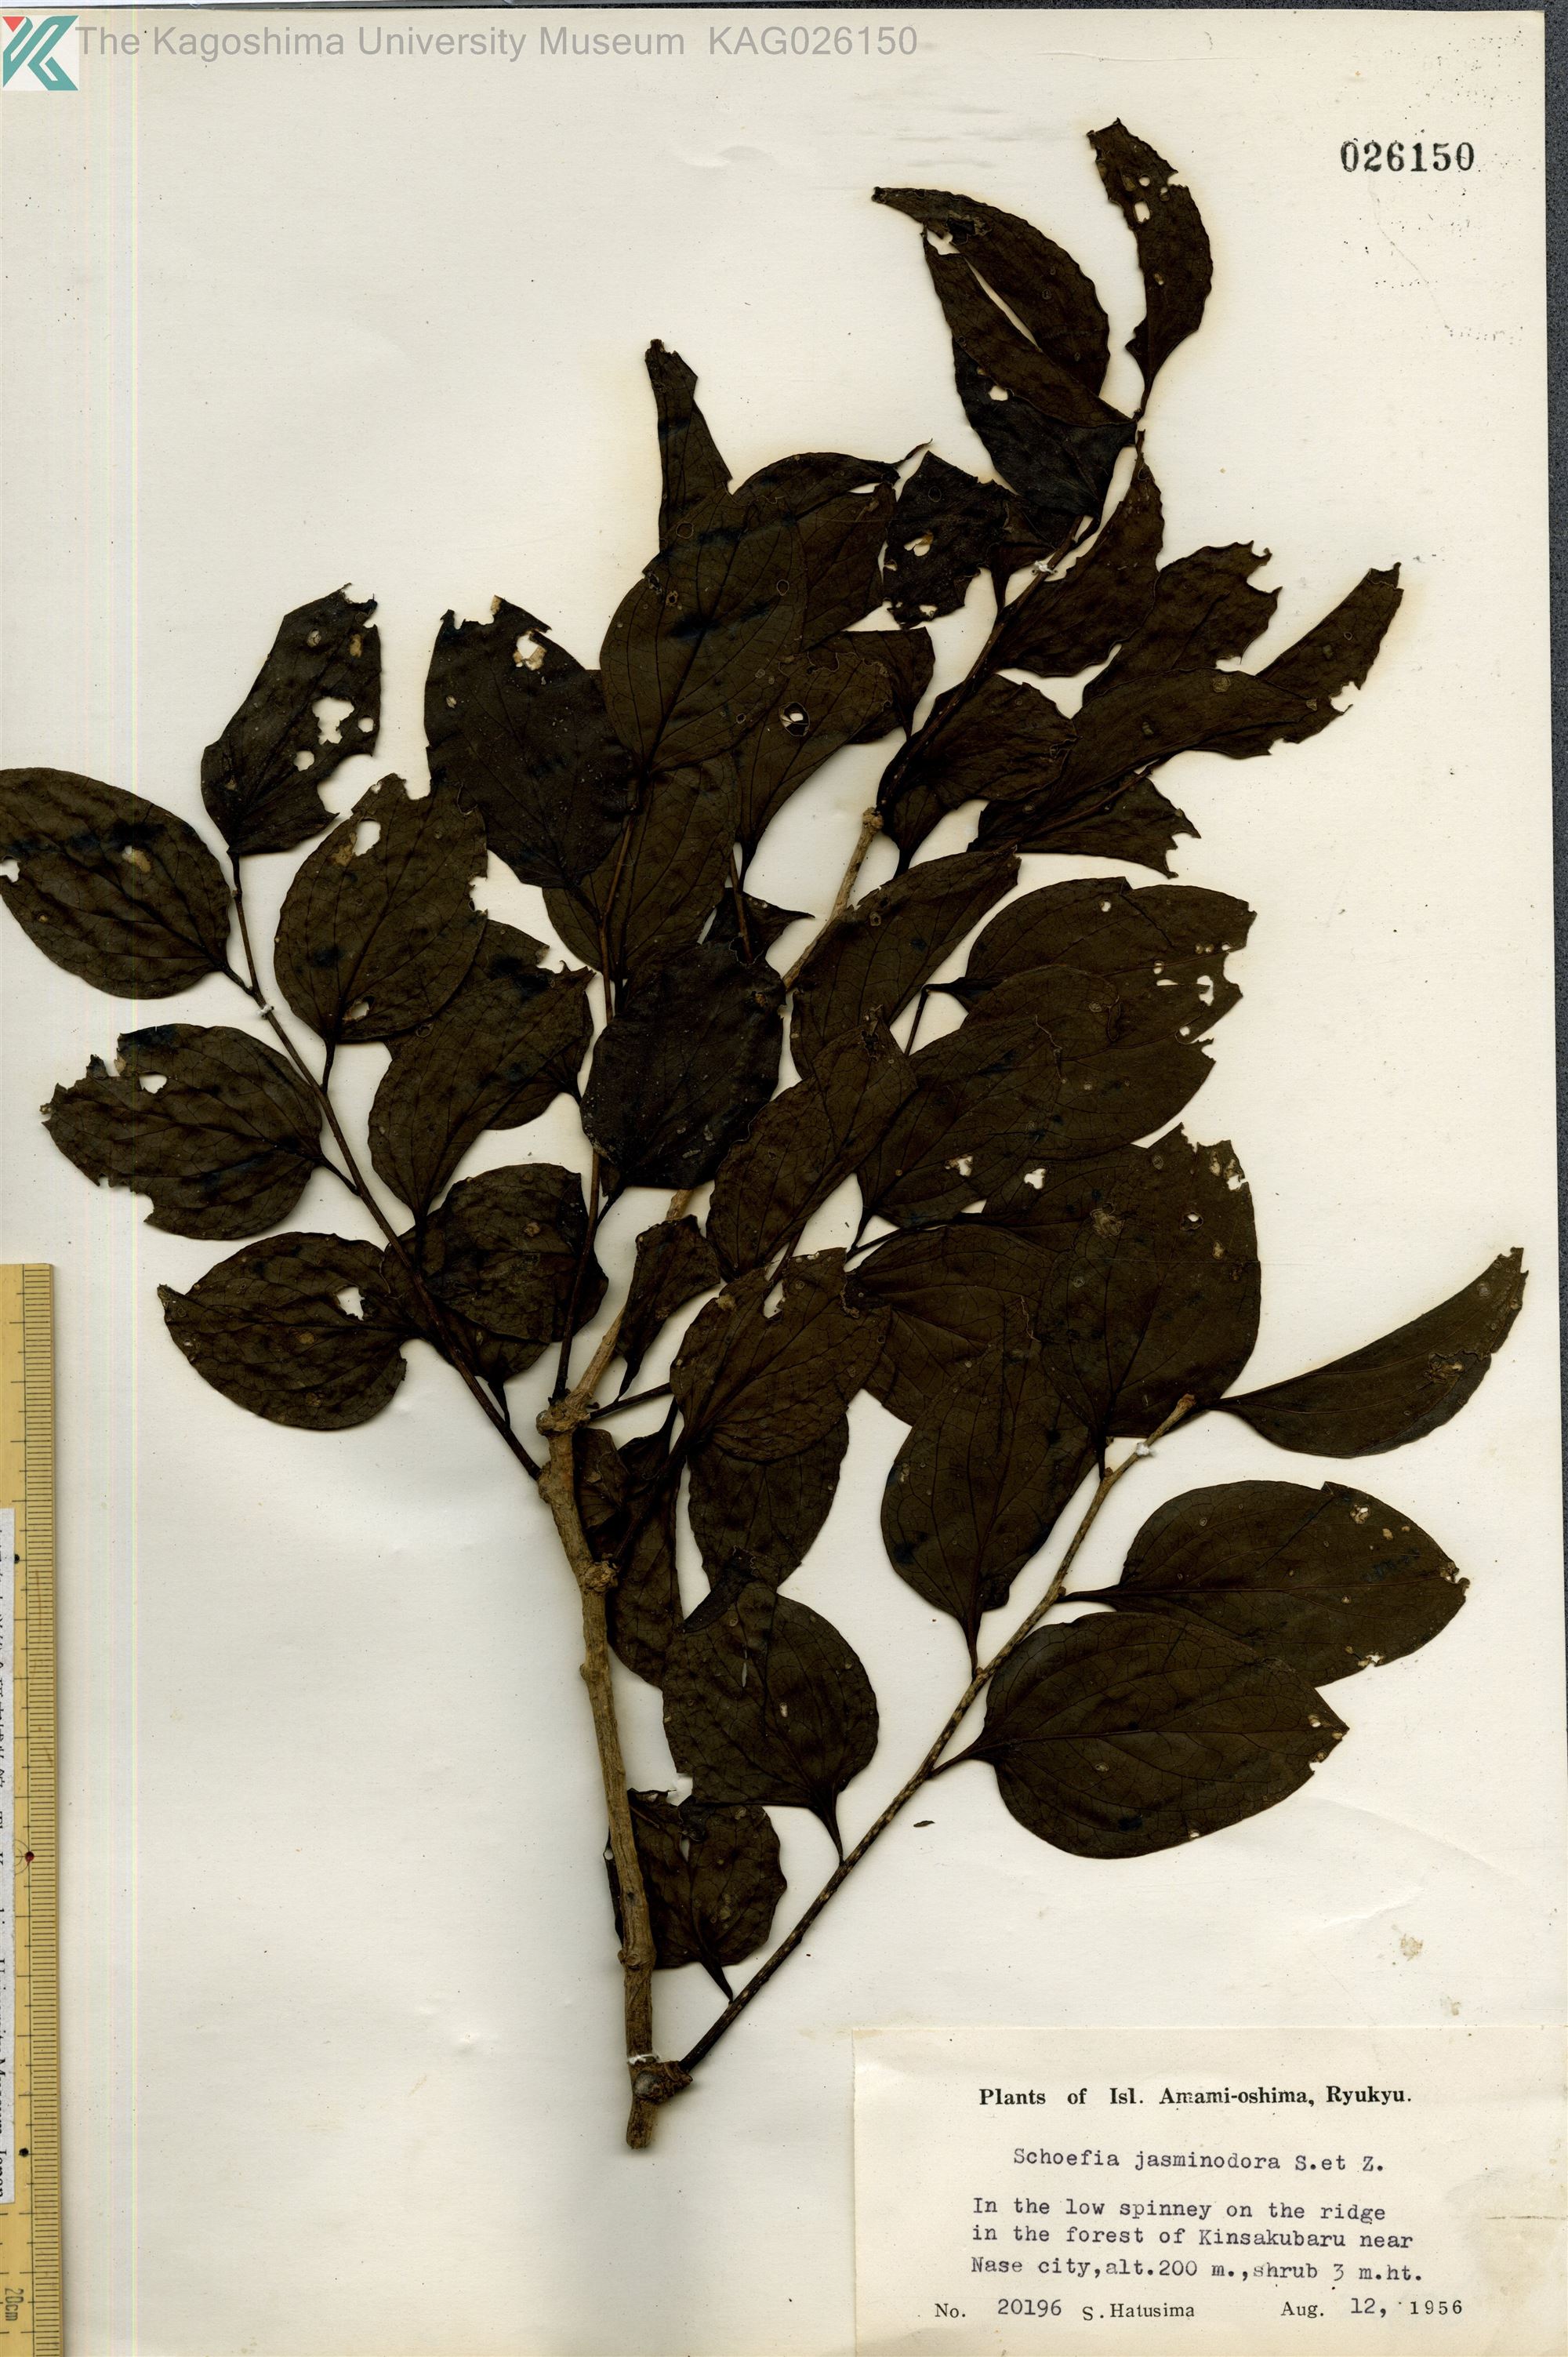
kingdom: Plantae
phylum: Tracheophyta
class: Magnoliopsida
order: Santalales
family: Schoepfiaceae
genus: Schoepfia
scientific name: Schoepfia jasminodora
